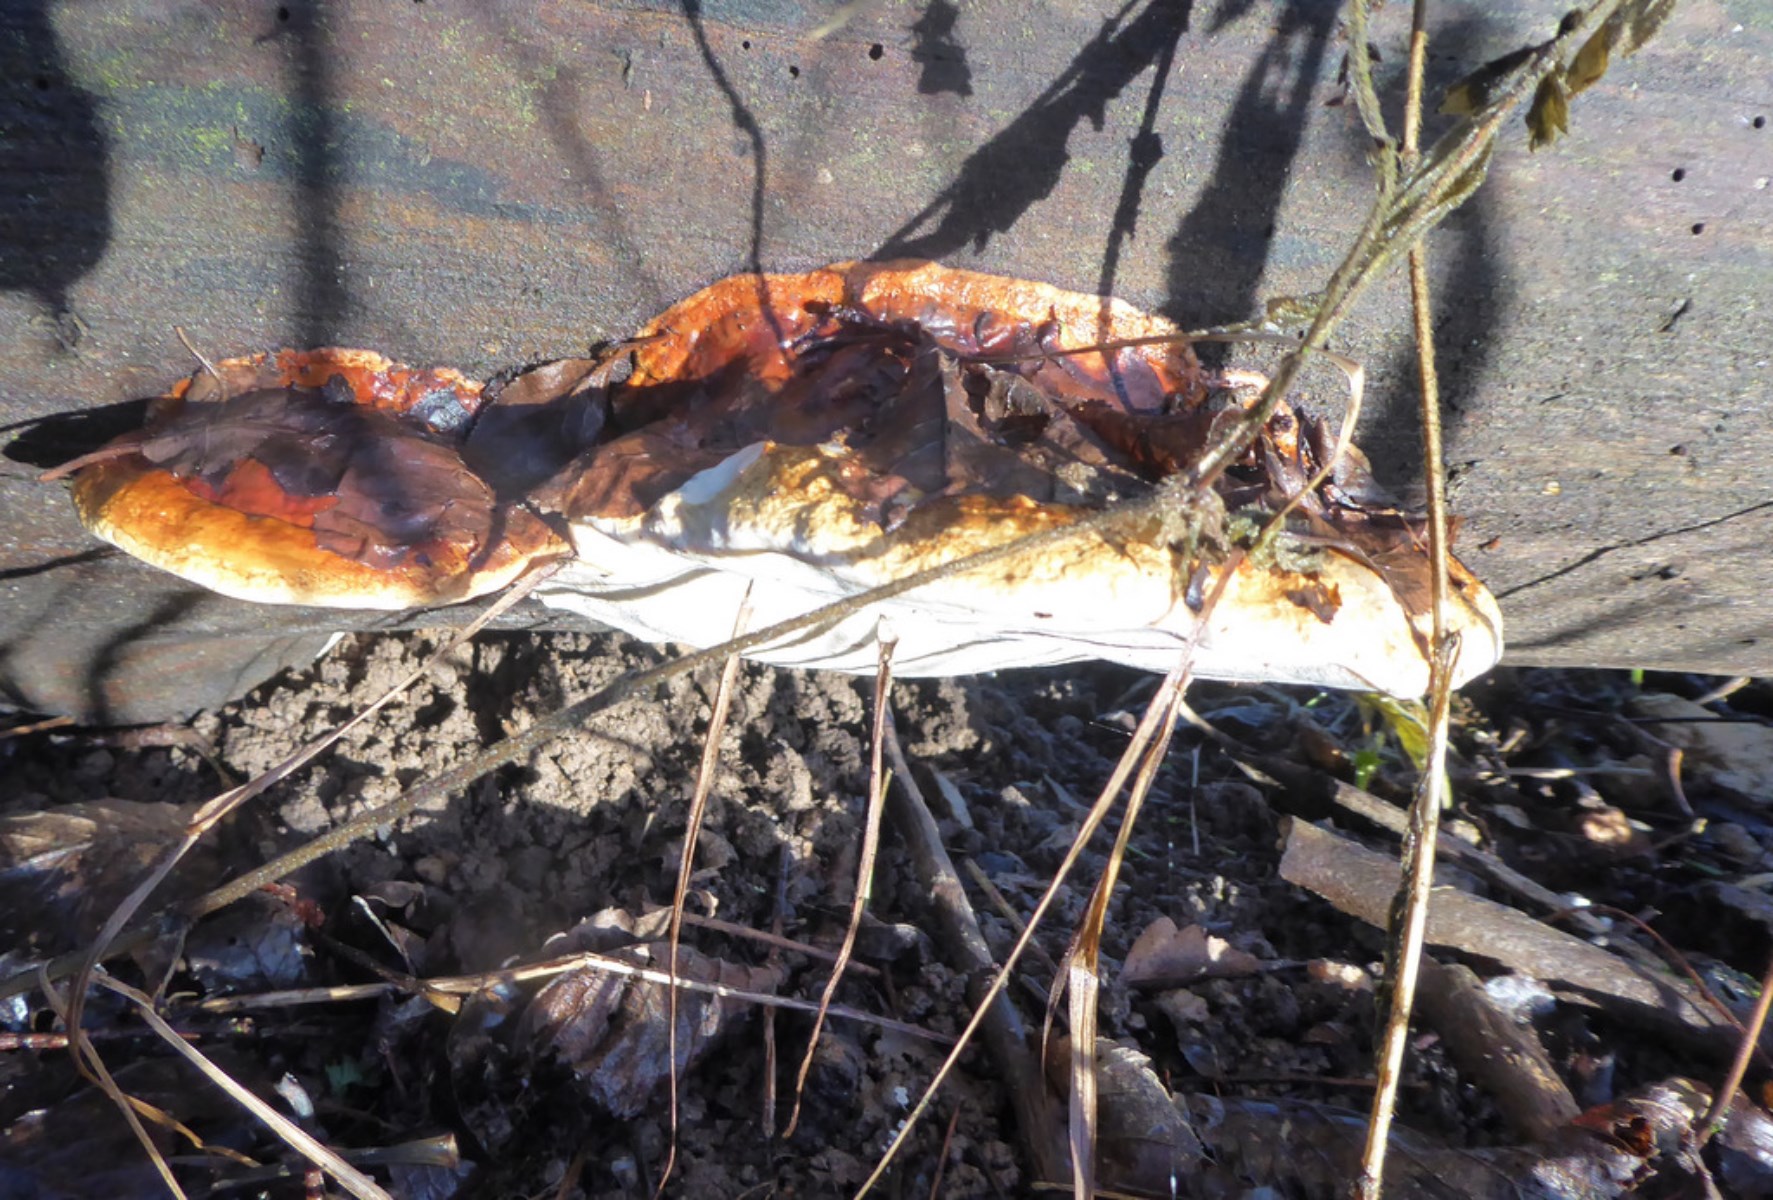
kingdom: Fungi
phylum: Basidiomycota
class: Agaricomycetes
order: Polyporales
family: Fomitopsidaceae
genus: Fomitopsis
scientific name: Fomitopsis pinicola
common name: randbæltet hovporesvamp
